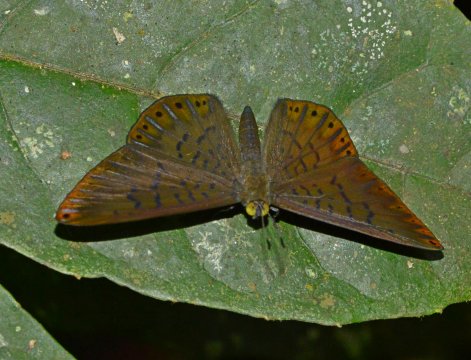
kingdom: Animalia
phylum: Arthropoda
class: Insecta
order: Lepidoptera
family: Riodinidae
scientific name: Riodinidae
